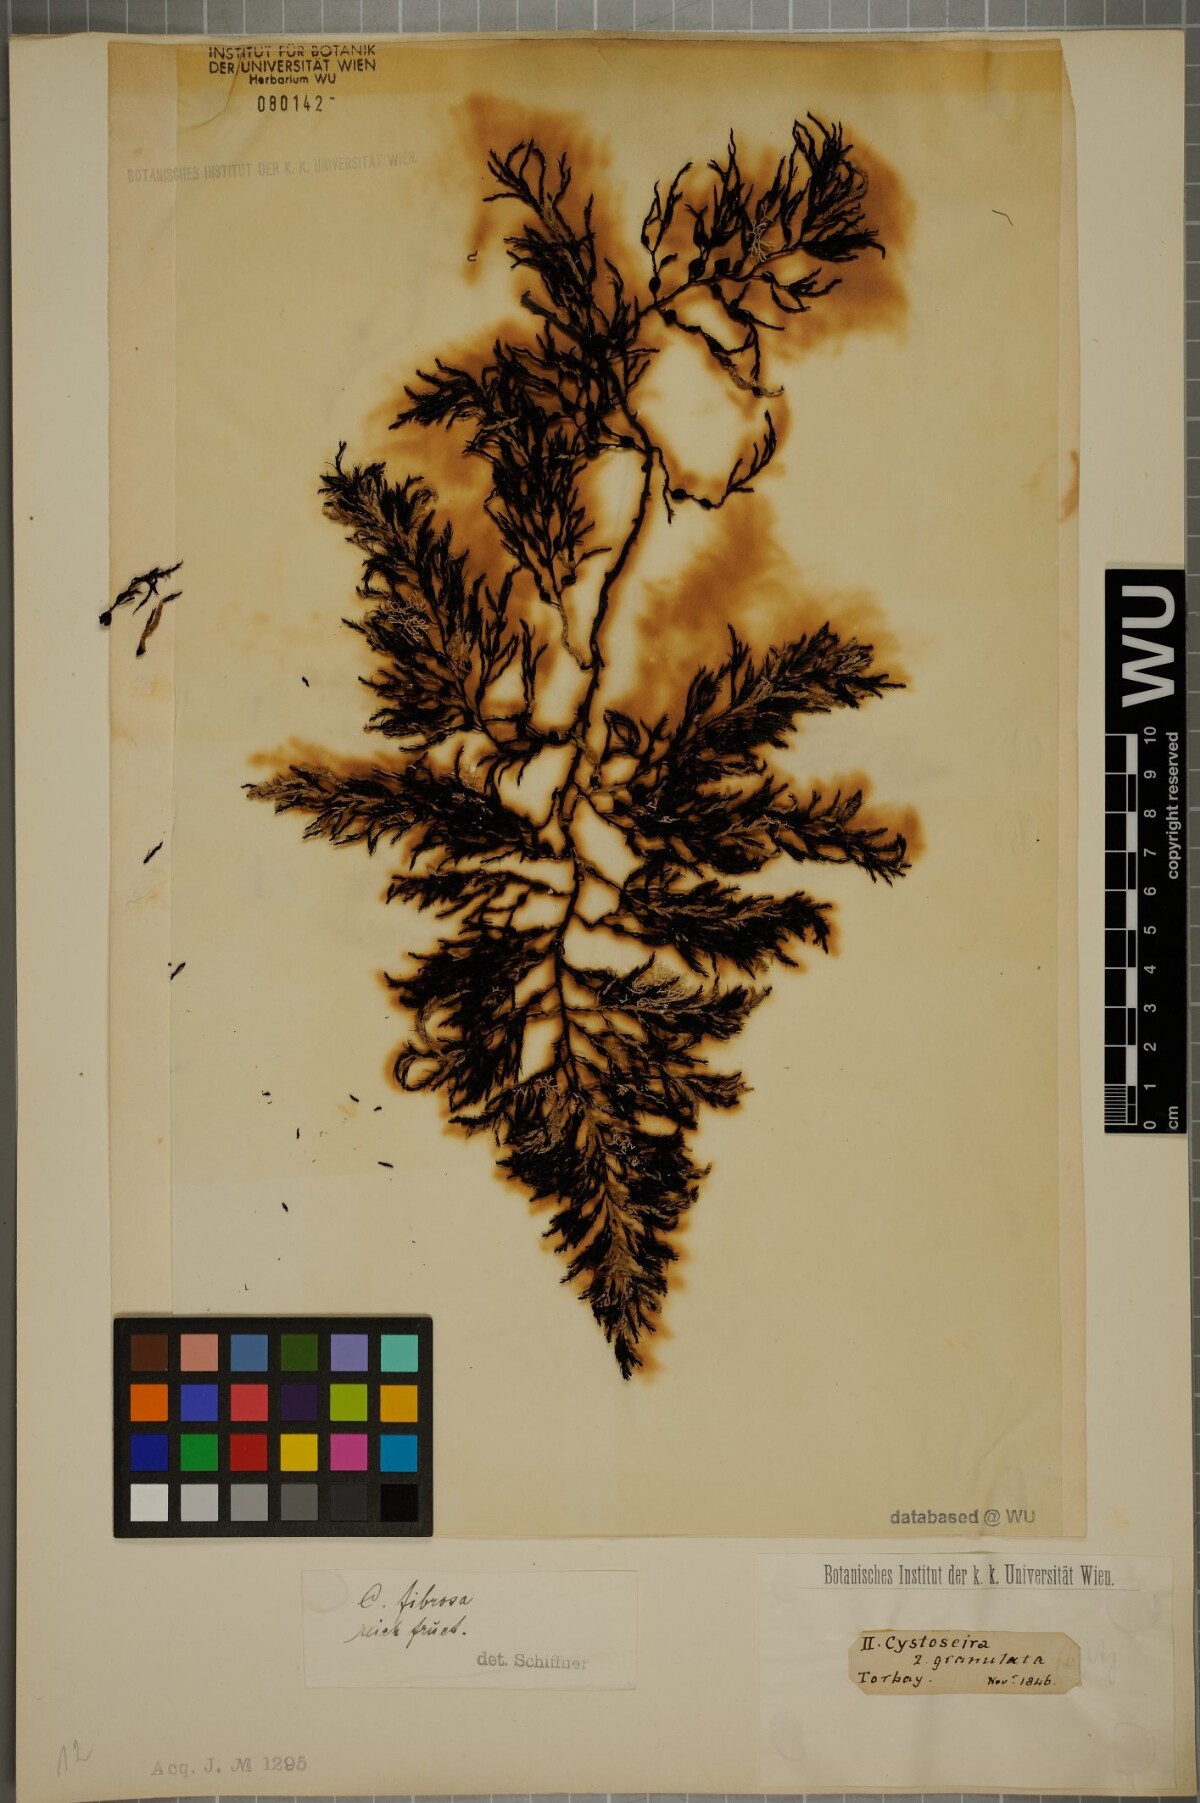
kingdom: Chromista
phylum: Ochrophyta
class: Phaeophyceae
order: Fucales
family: Sargassaceae
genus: Cystoseira
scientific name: Cystoseira Gongolaria baccata
